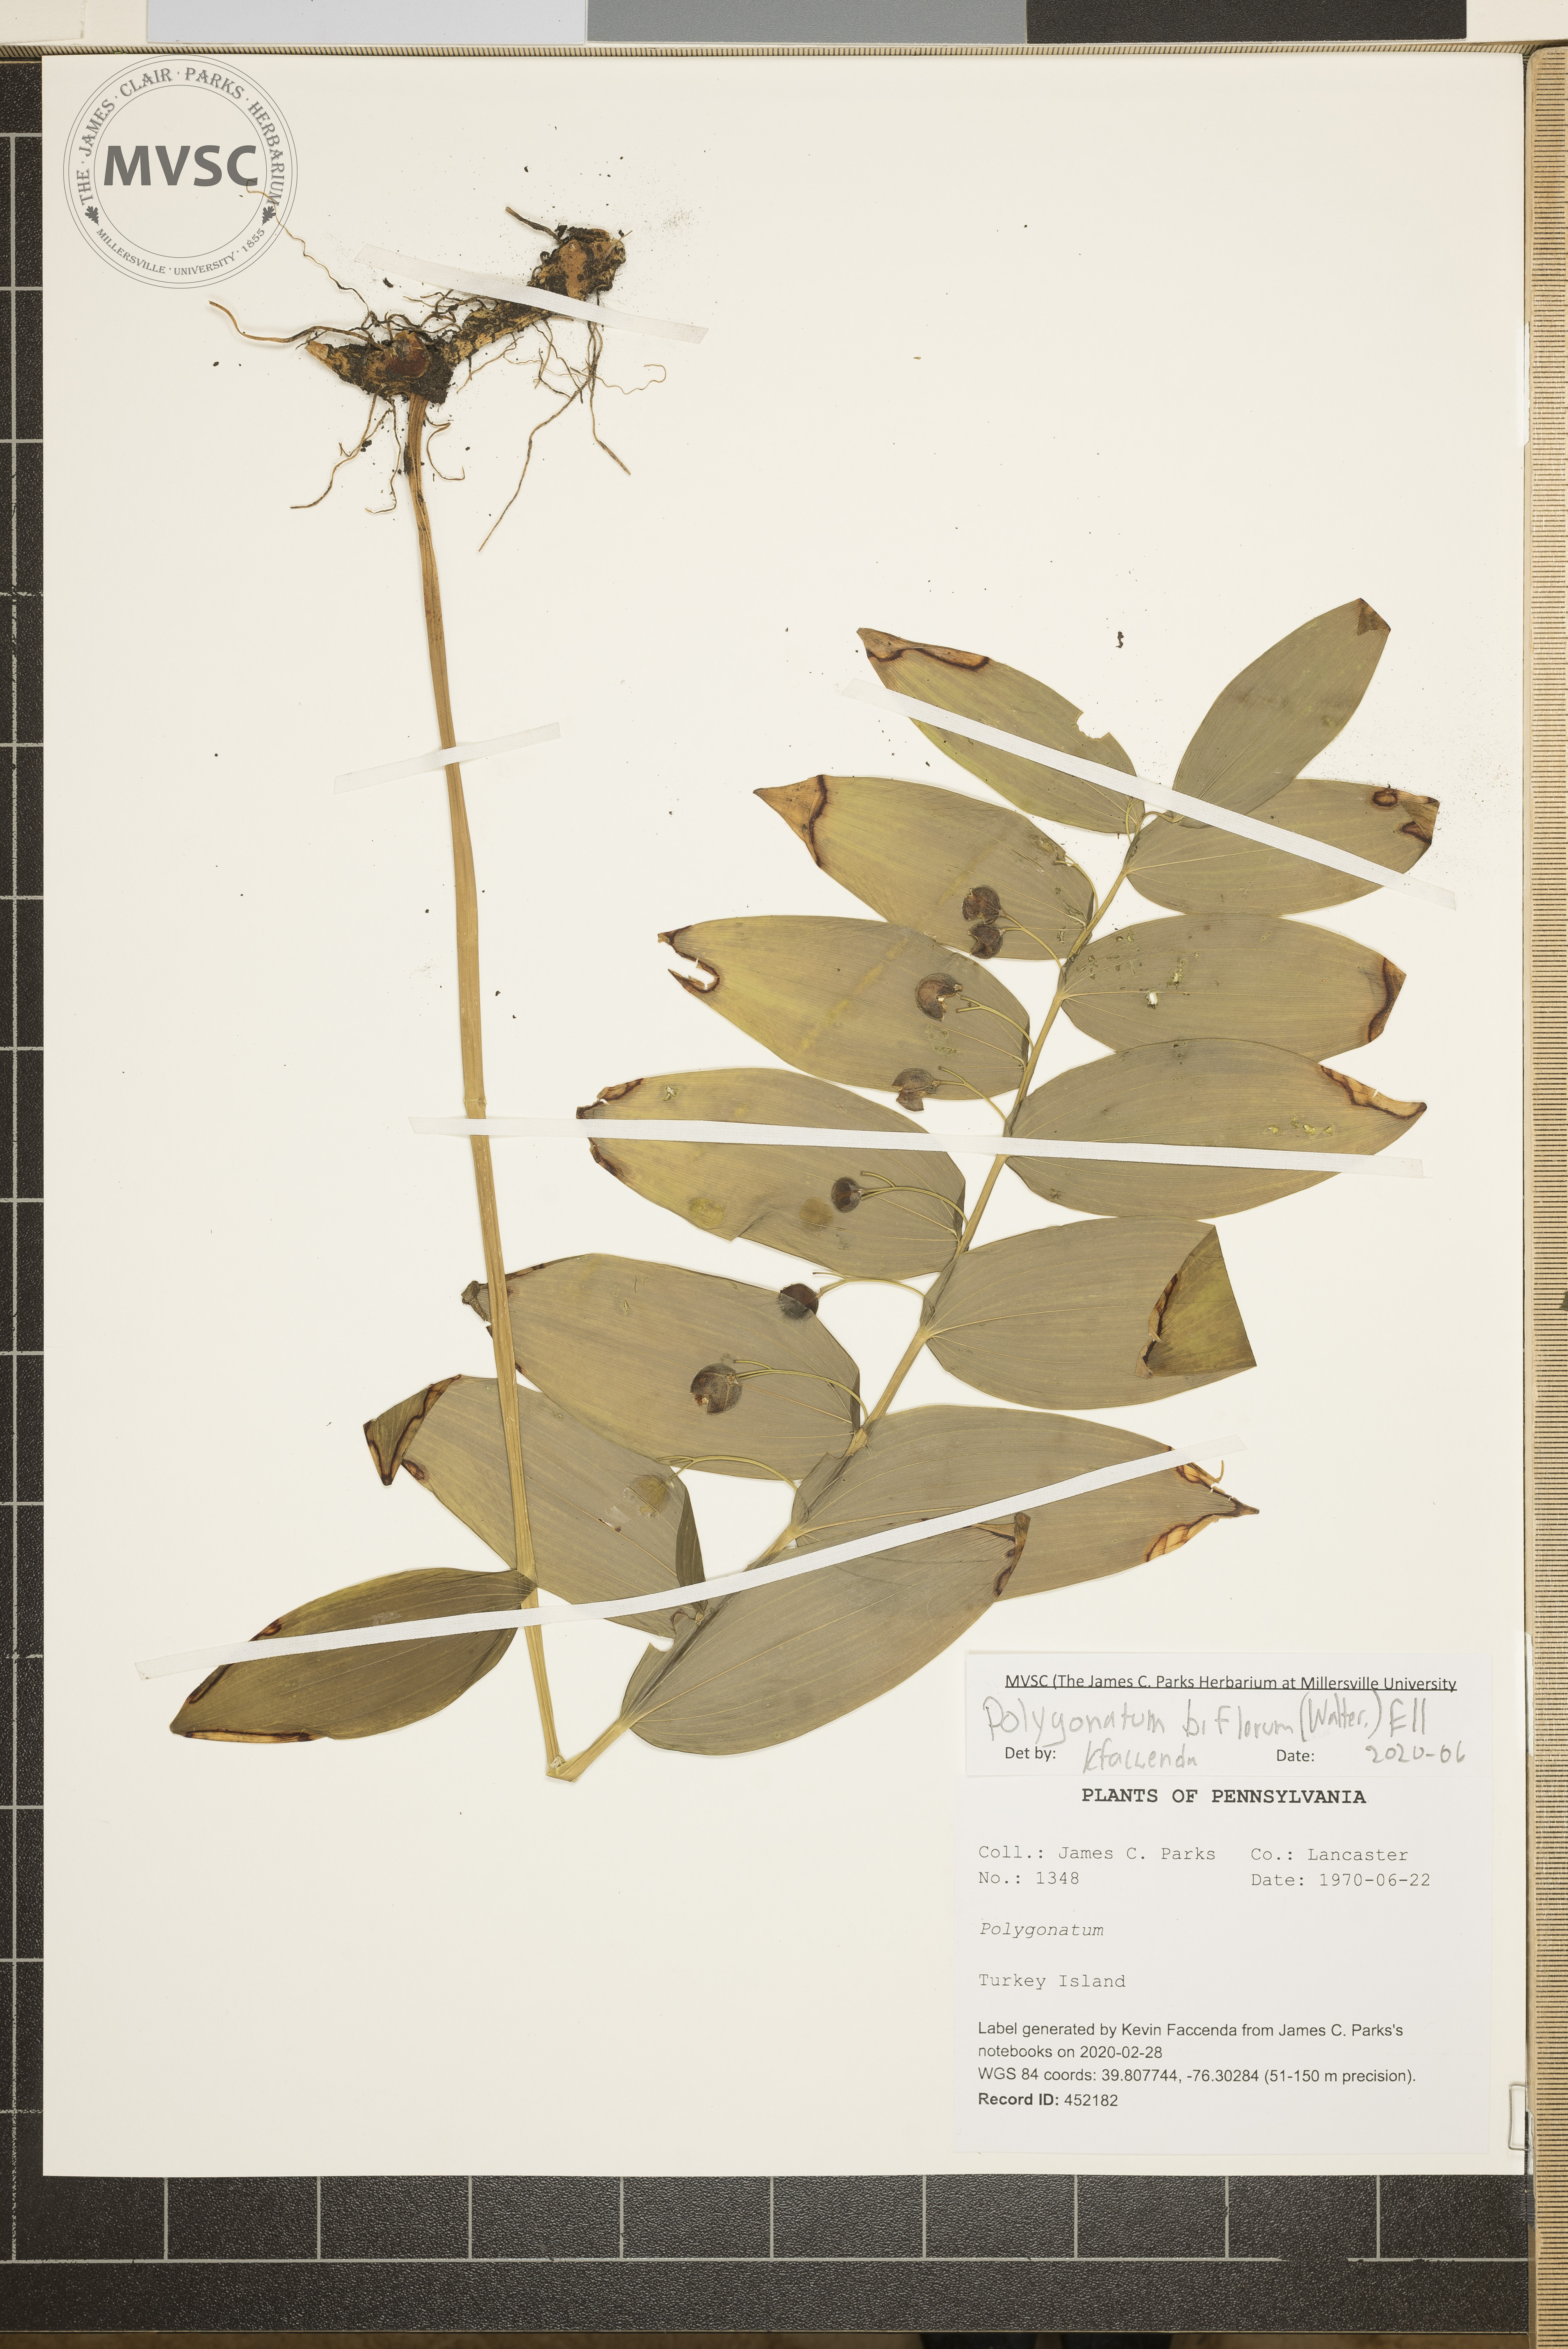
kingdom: Plantae
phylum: Tracheophyta
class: Liliopsida
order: Asparagales
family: Asparagaceae
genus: Polygonatum
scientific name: Polygonatum biflorum
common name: American solomon's-seal
